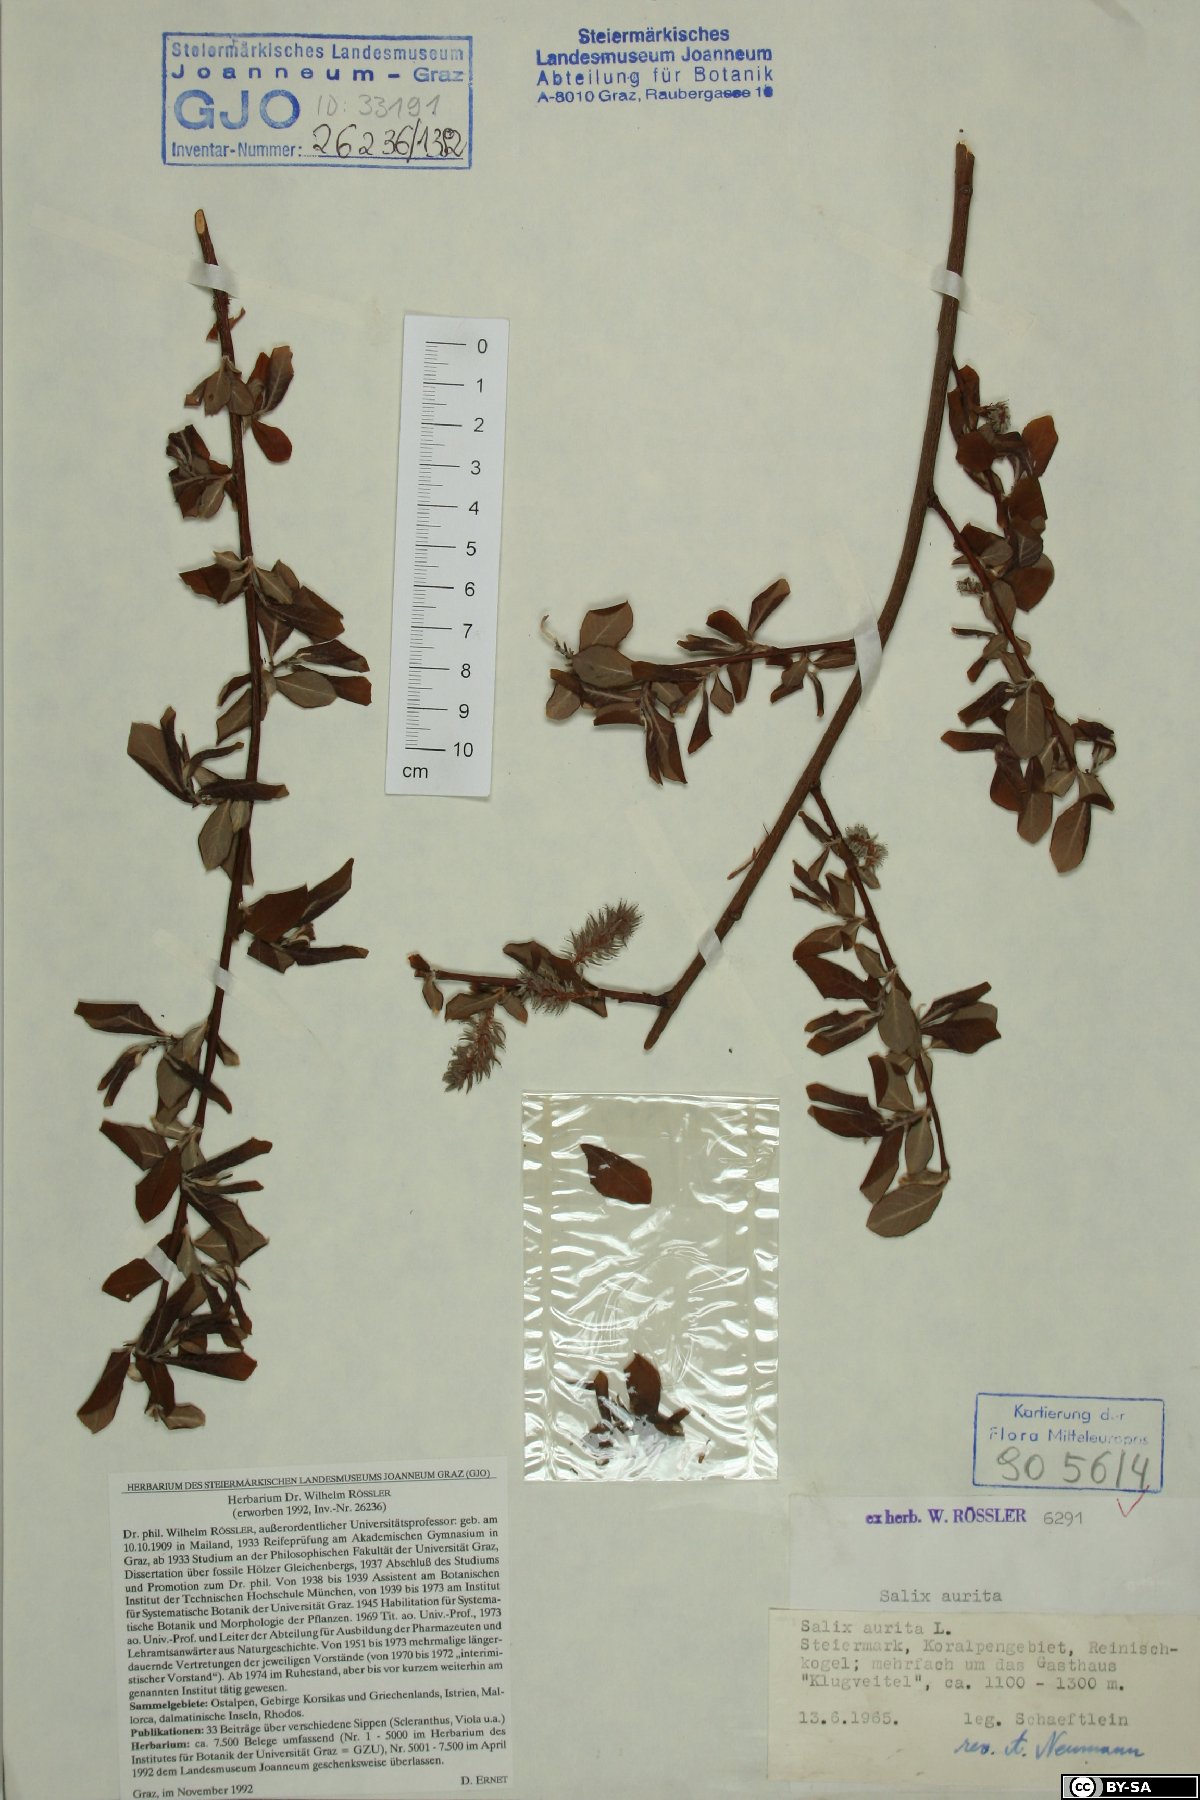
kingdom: Plantae
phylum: Tracheophyta
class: Magnoliopsida
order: Malpighiales
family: Salicaceae
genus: Salix
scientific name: Salix aurita
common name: Eared willow
